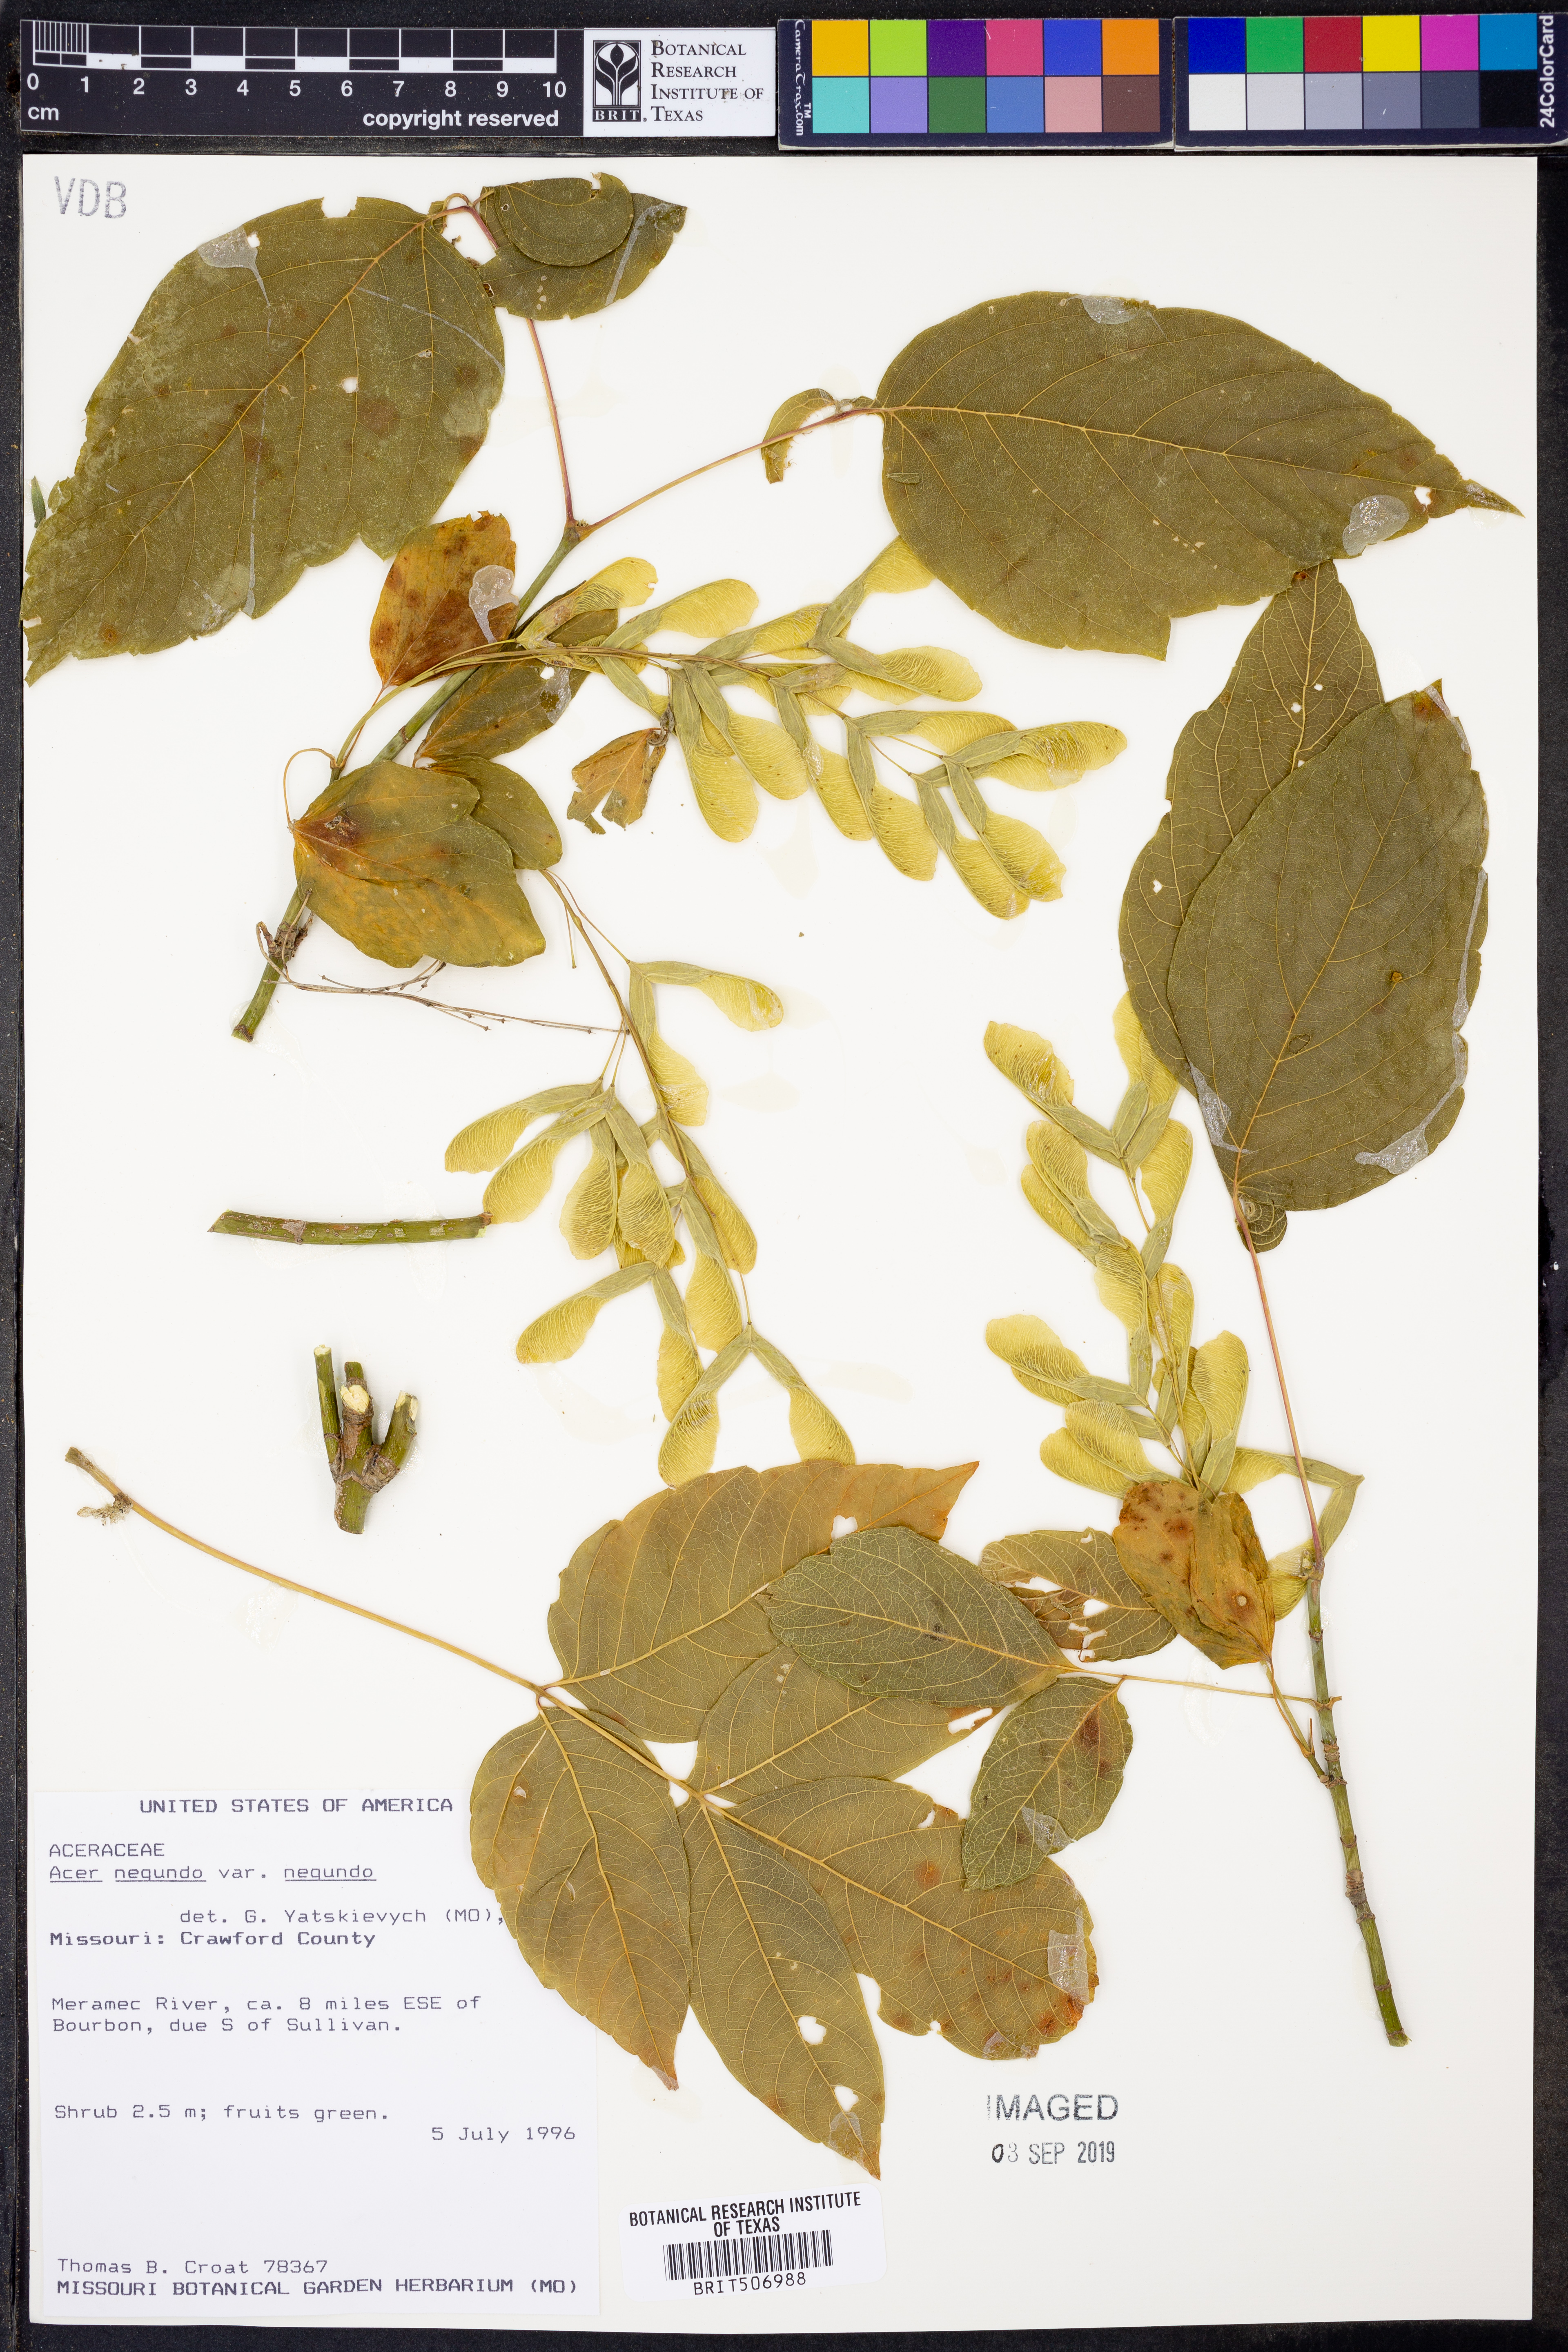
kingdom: Plantae
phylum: Tracheophyta
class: Magnoliopsida
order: Sapindales
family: Sapindaceae
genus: Acer
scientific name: Acer negundo
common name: Ashleaf maple
